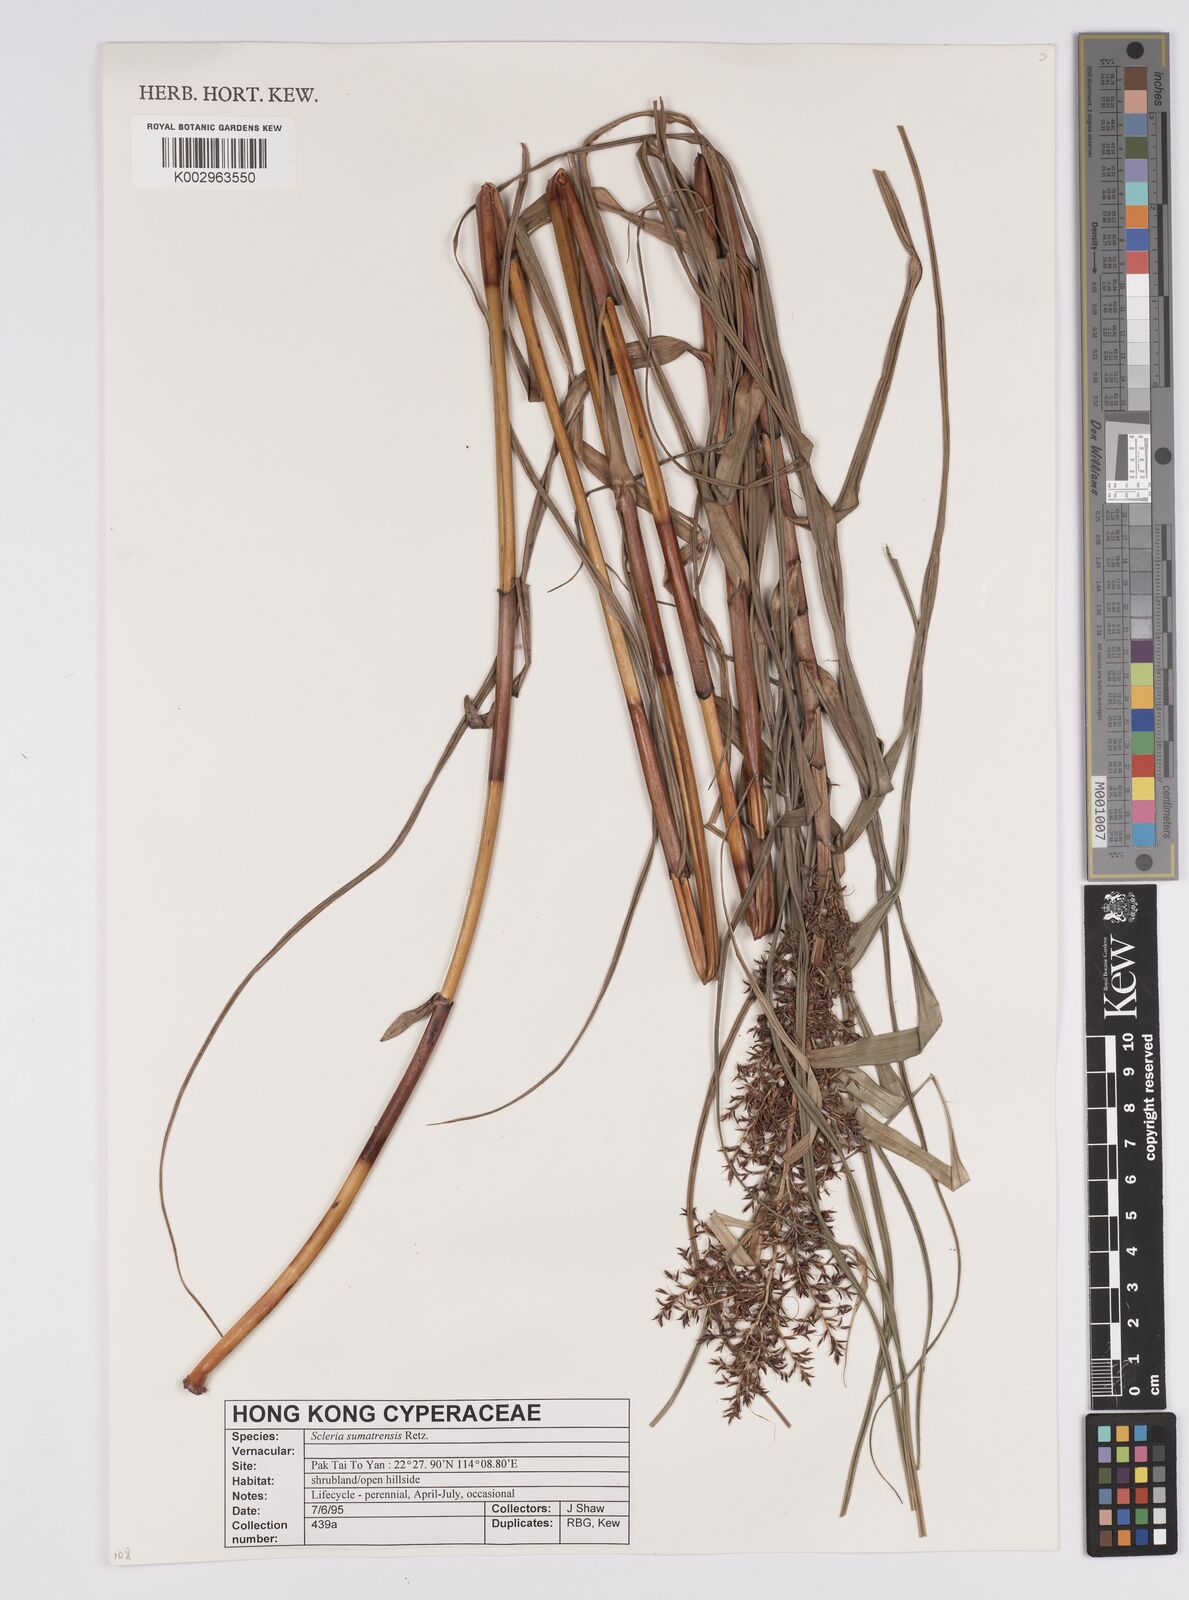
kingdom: Plantae
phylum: Tracheophyta
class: Liliopsida
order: Poales
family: Cyperaceae
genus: Scleria
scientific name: Scleria sumatrensis
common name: Sumatran scleria
